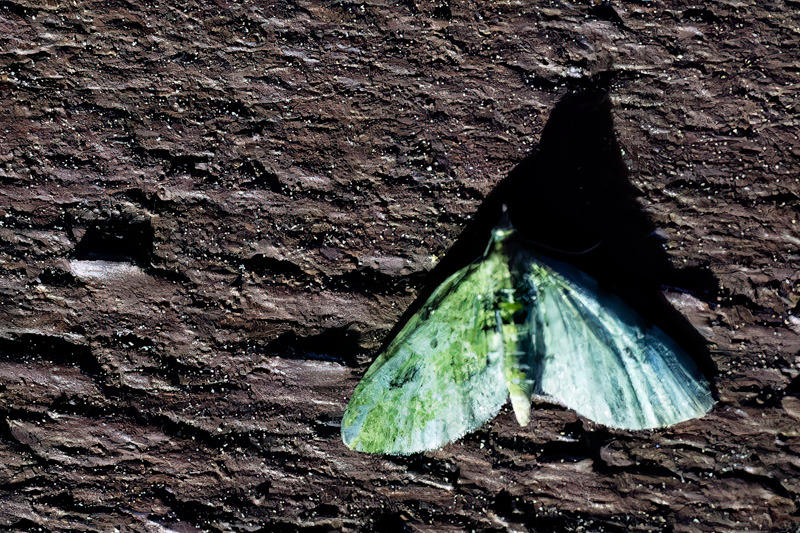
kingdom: Animalia
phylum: Arthropoda
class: Insecta
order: Lepidoptera
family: Geometridae
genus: Chloroclystis
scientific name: Chloroclystis v-ata
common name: V-dværgmåler
